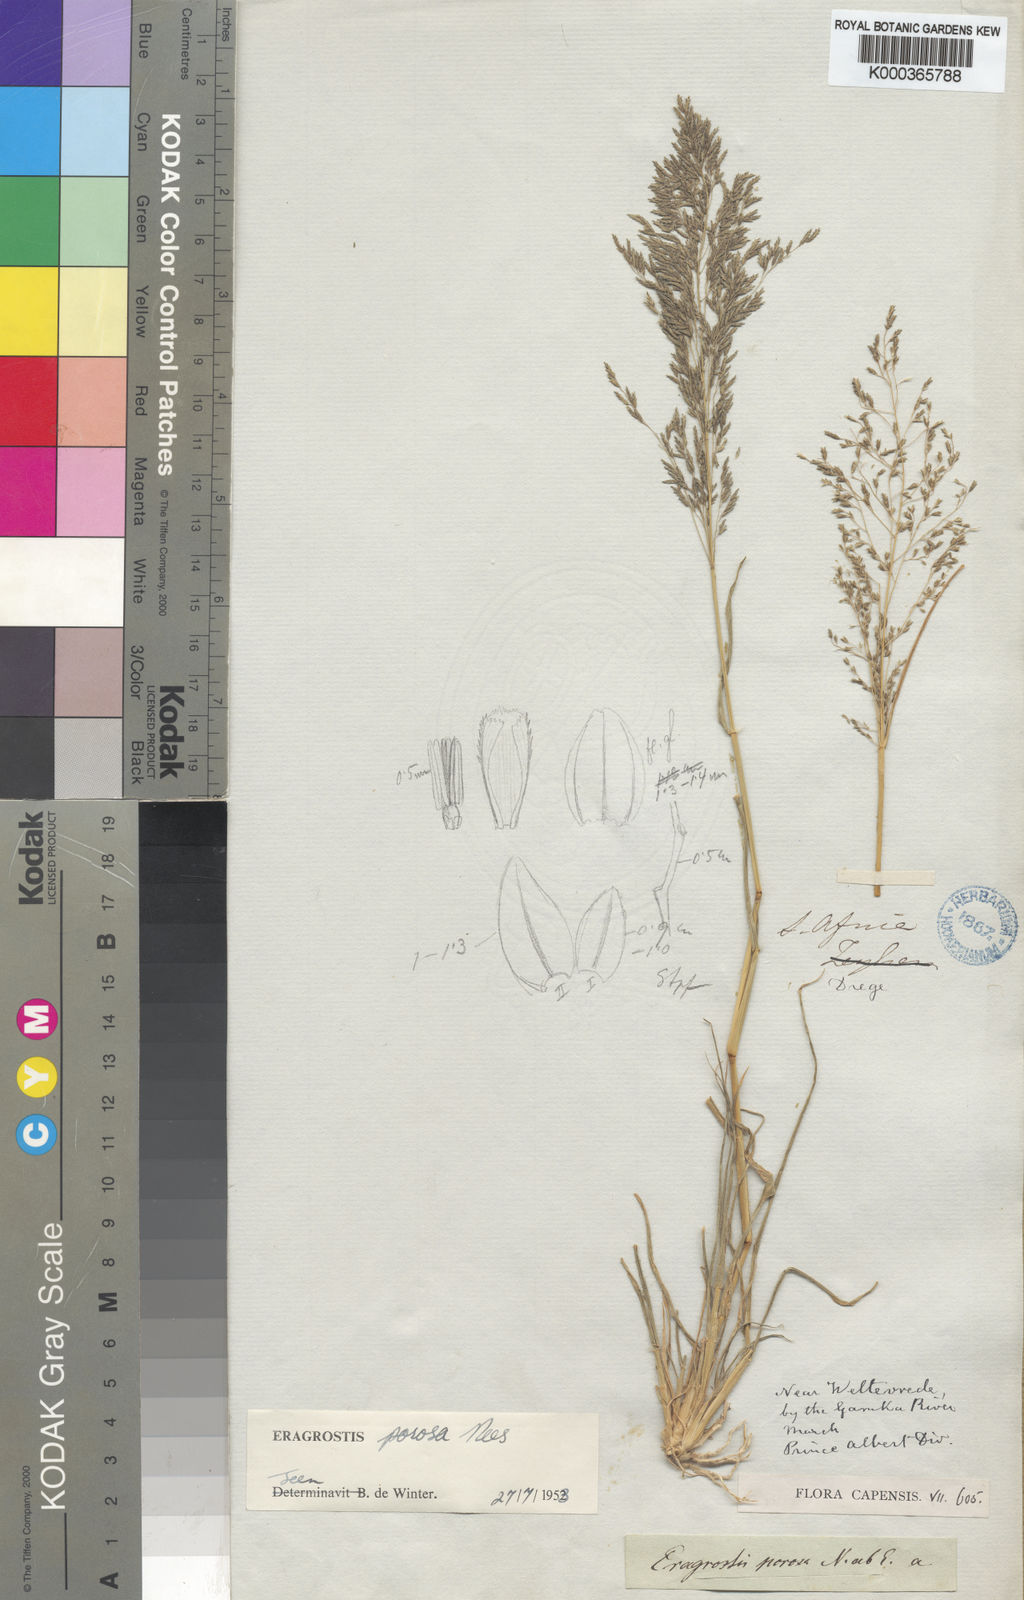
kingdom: Plantae
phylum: Tracheophyta
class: Liliopsida
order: Poales
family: Poaceae
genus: Eragrostis
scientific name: Eragrostis porosa
